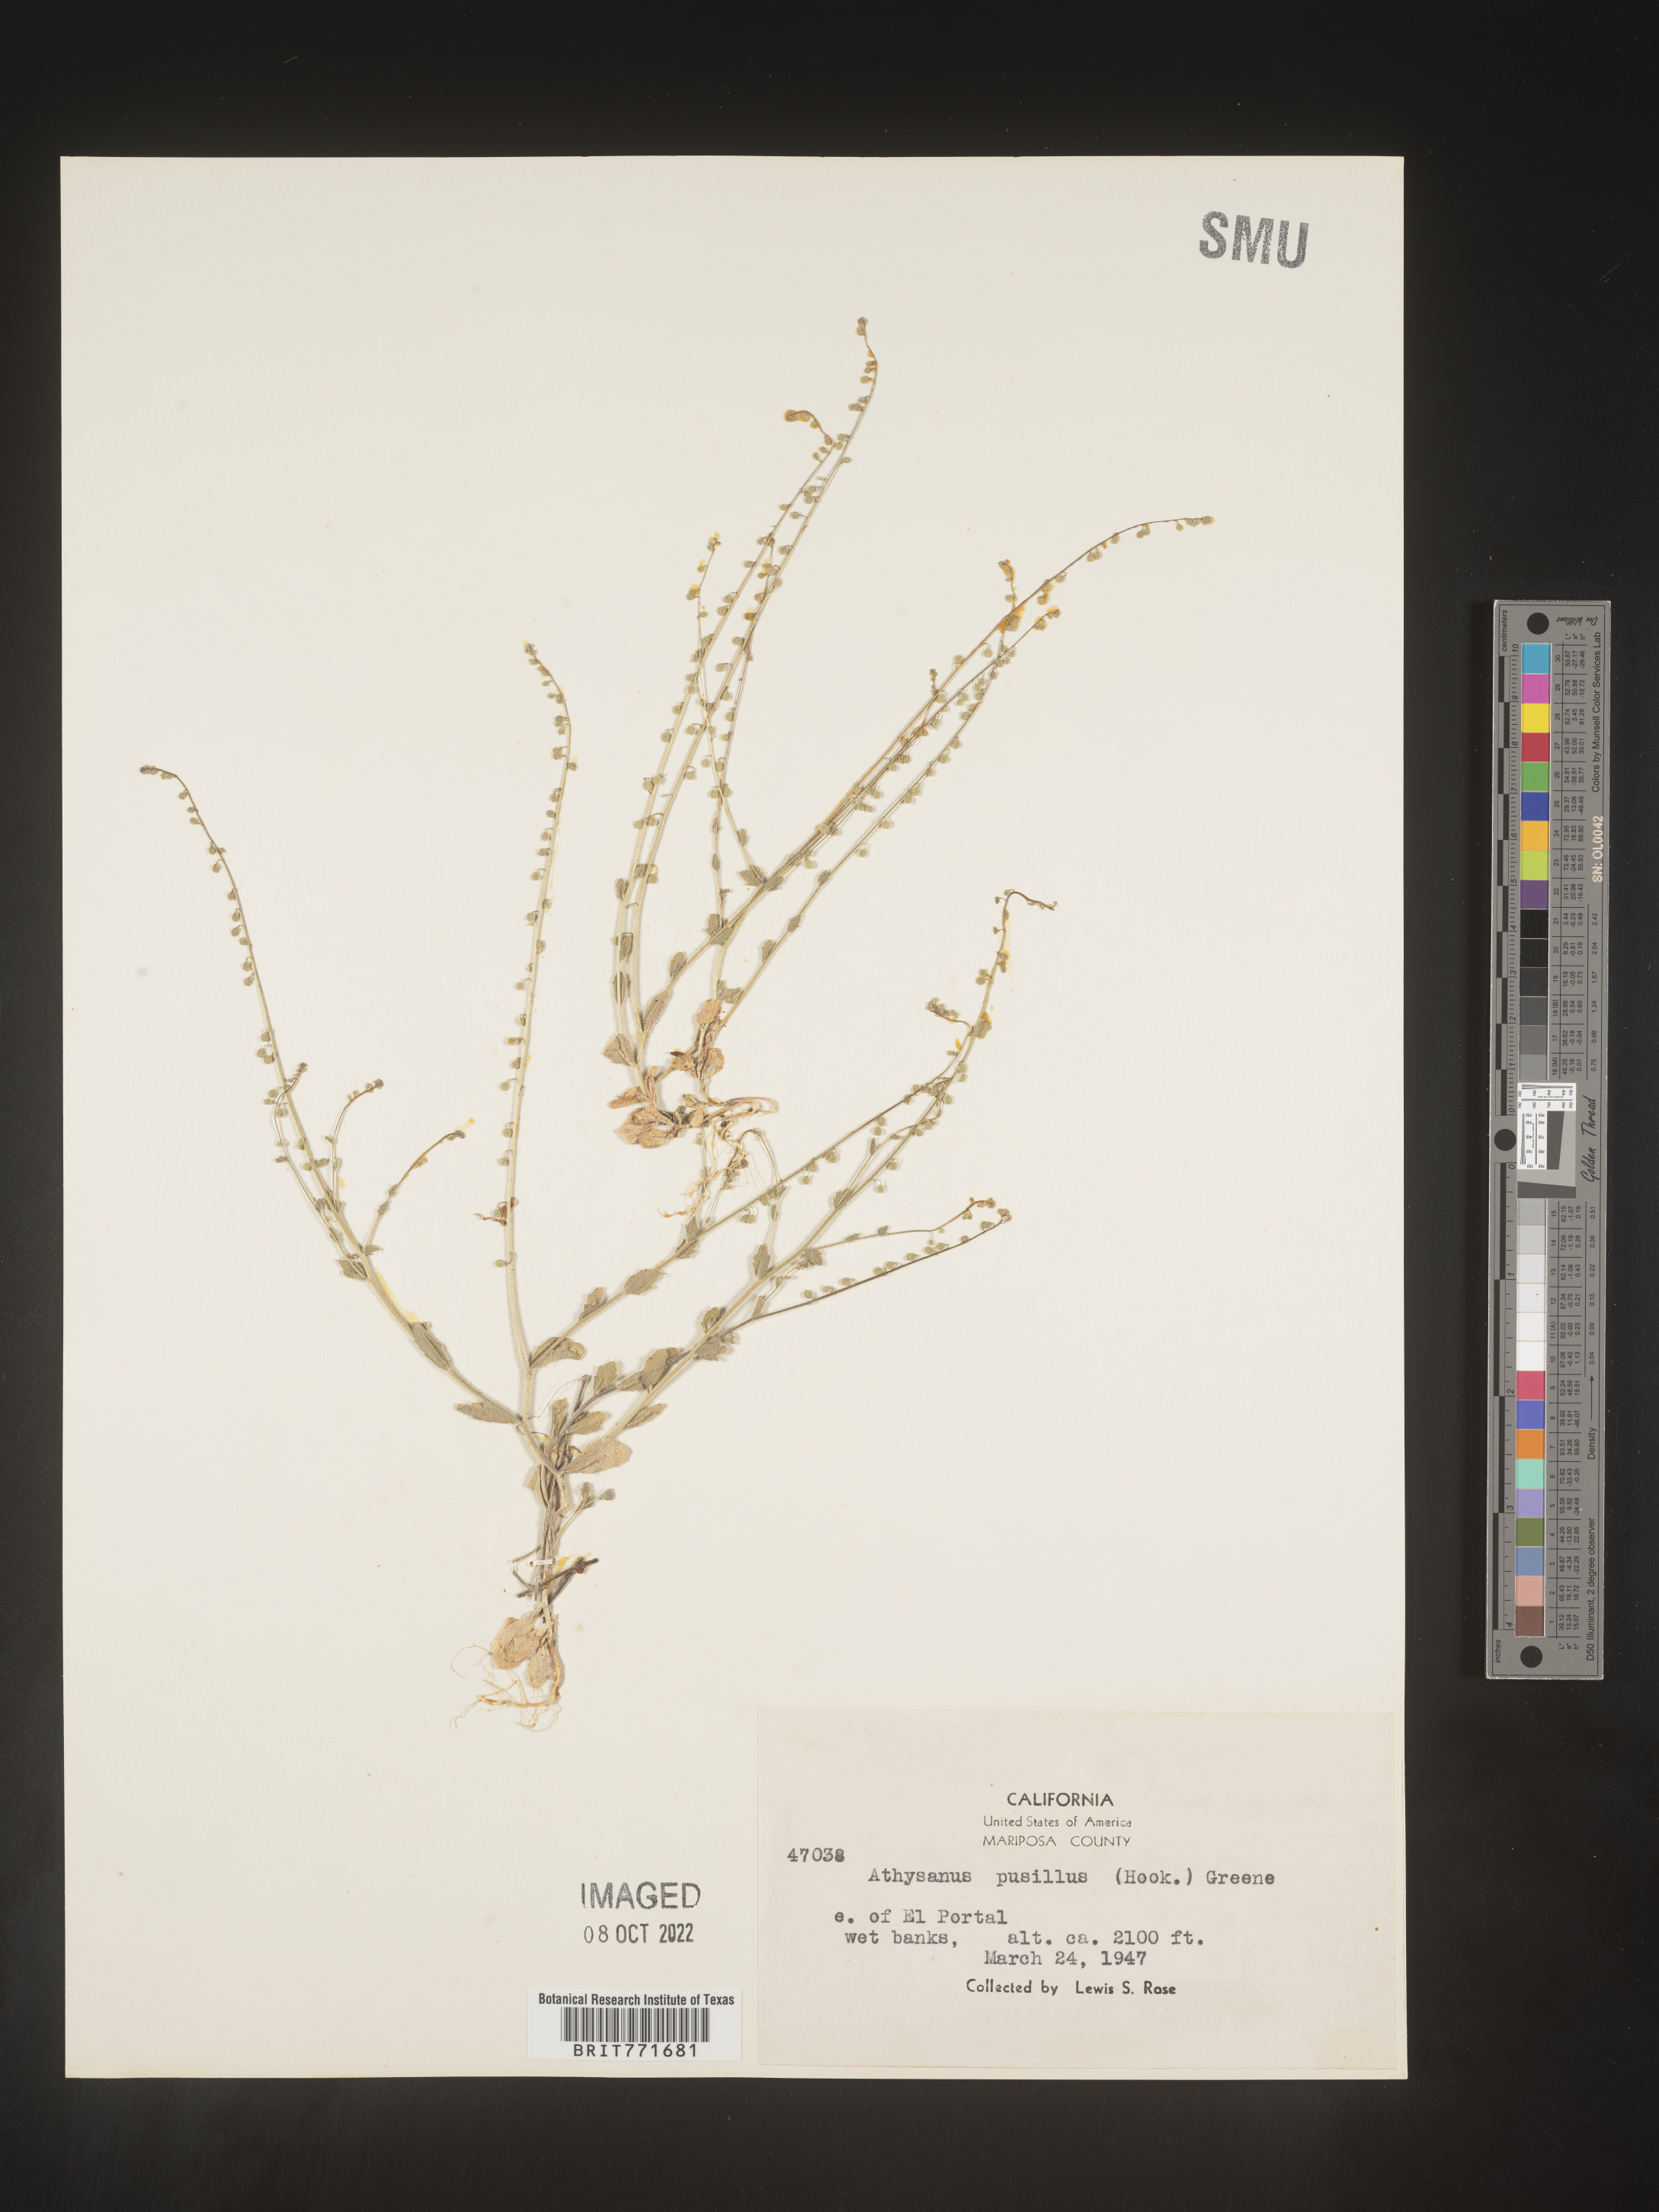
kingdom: Plantae
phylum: Tracheophyta
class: Magnoliopsida
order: Brassicales
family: Brassicaceae
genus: Athysanus
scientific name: Athysanus
